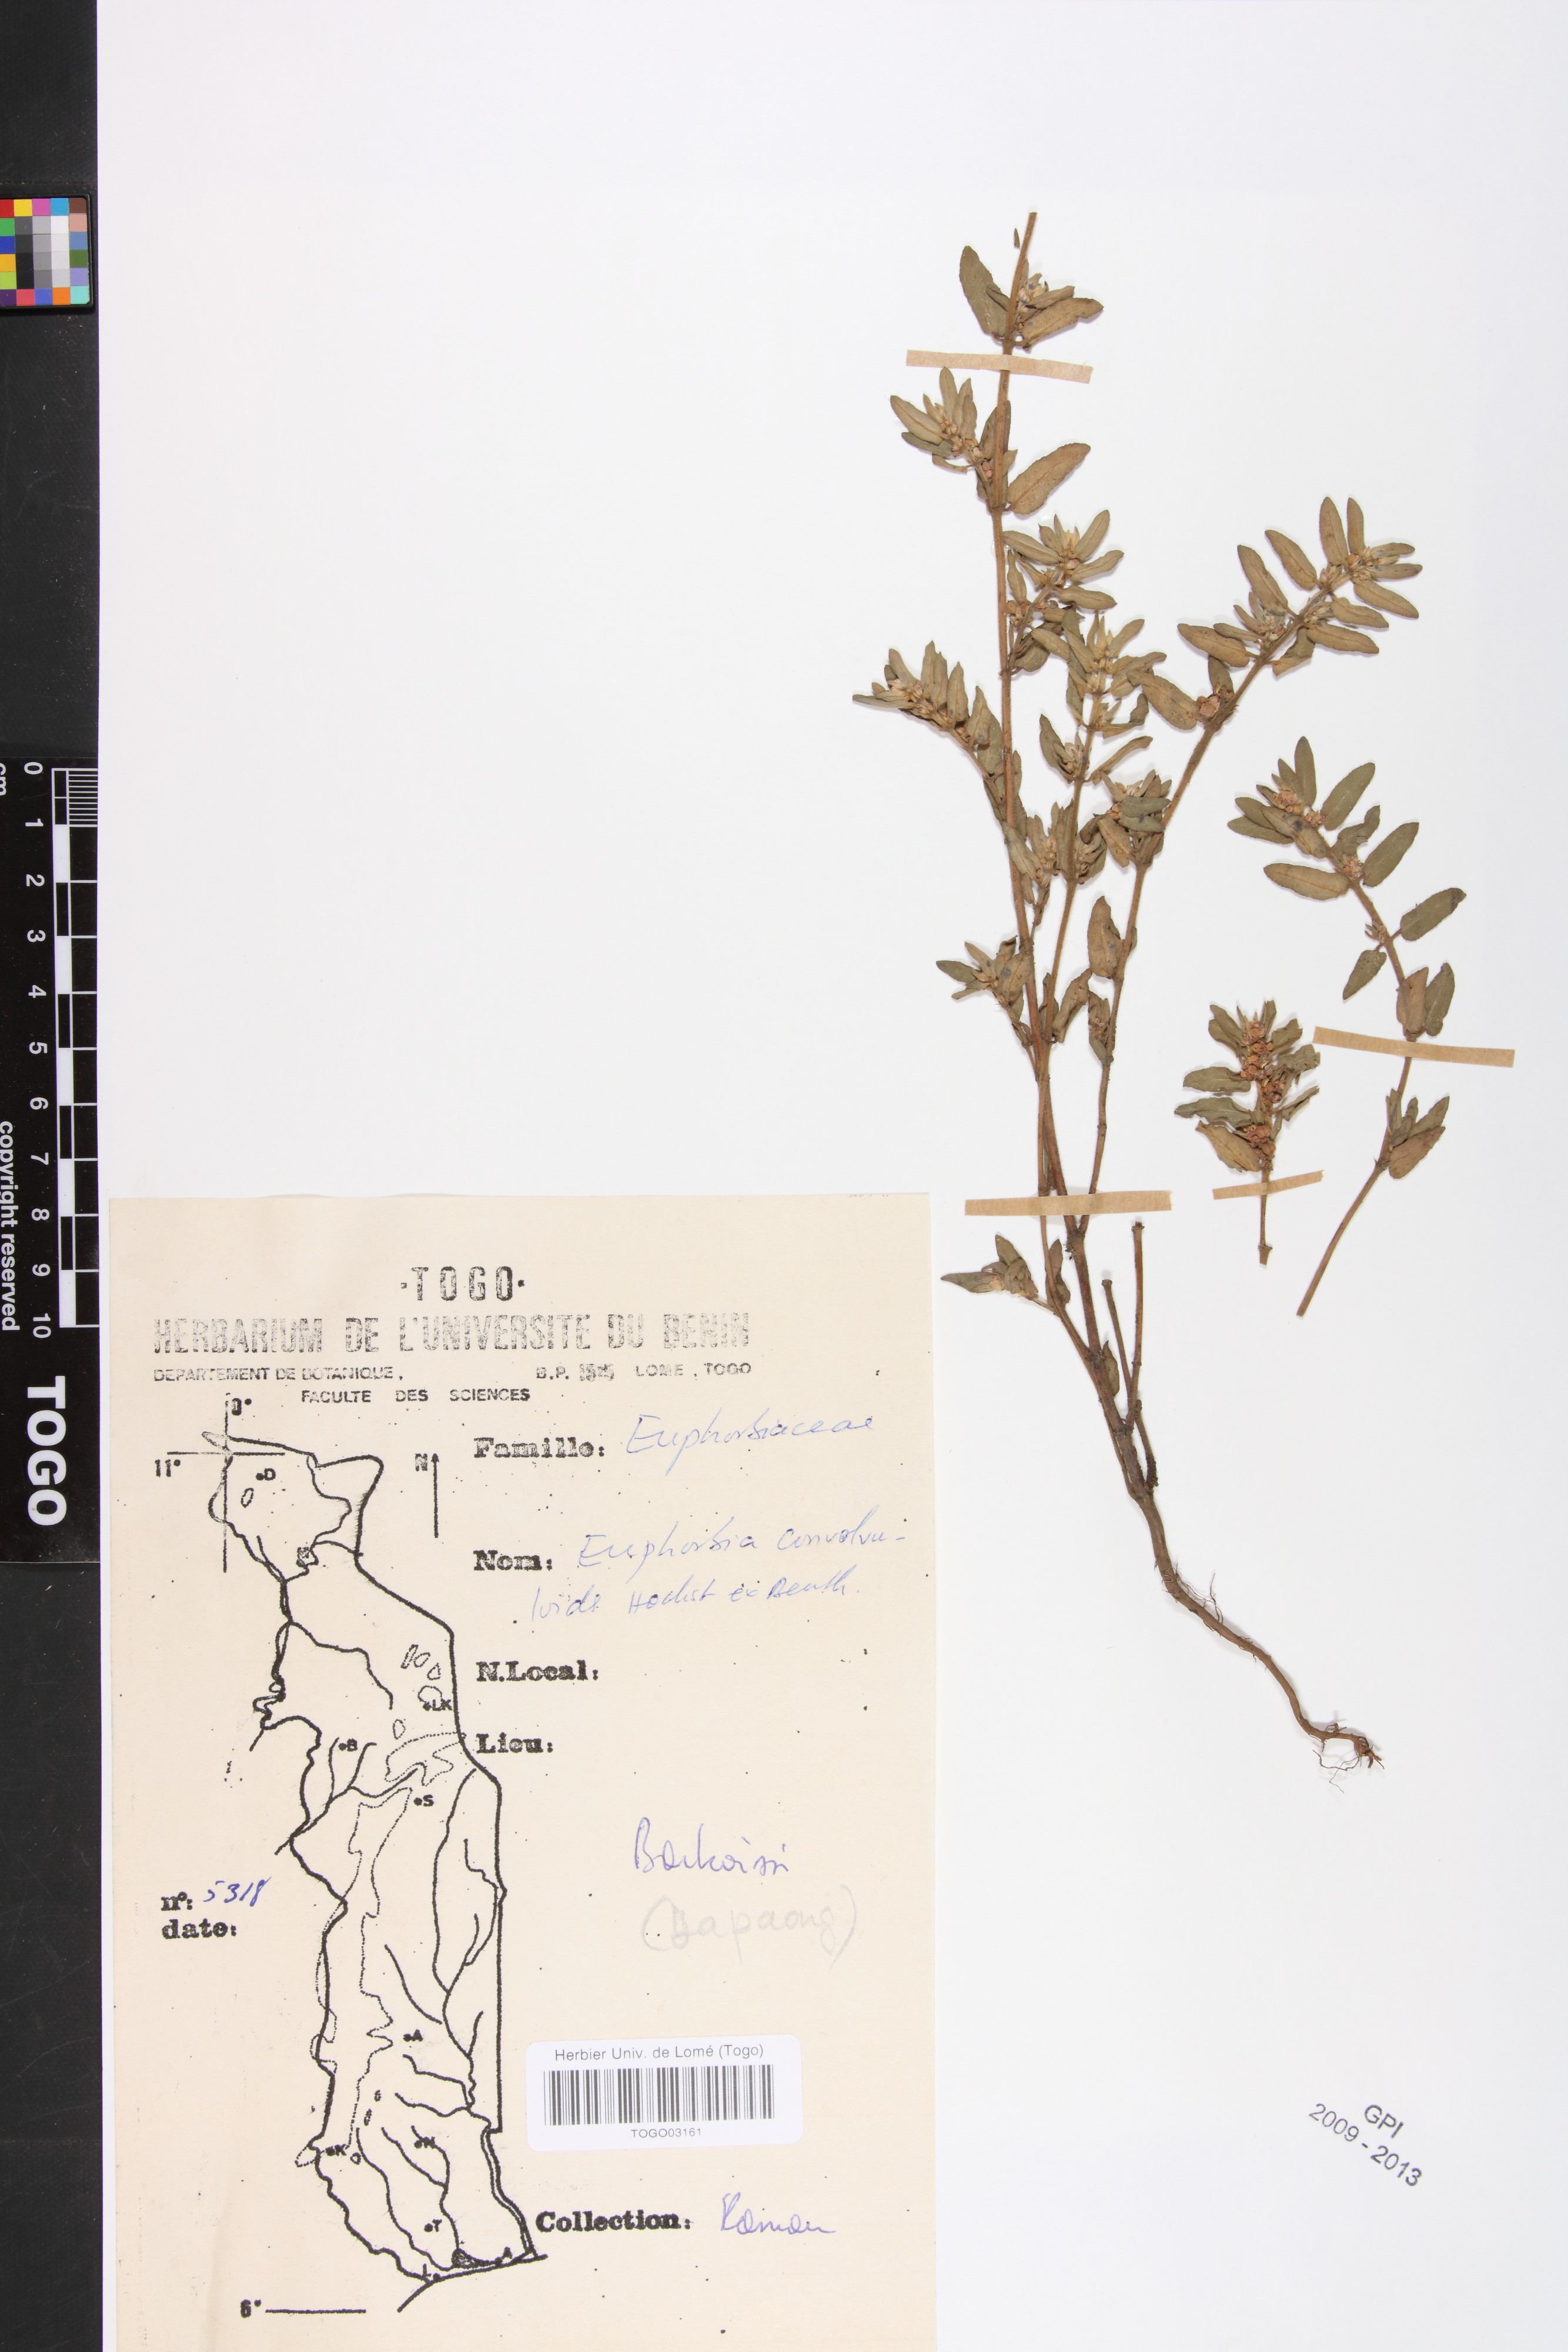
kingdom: Plantae
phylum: Tracheophyta
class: Magnoliopsida
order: Malpighiales
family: Euphorbiaceae
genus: Euphorbia
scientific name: Euphorbia convolvuloides
